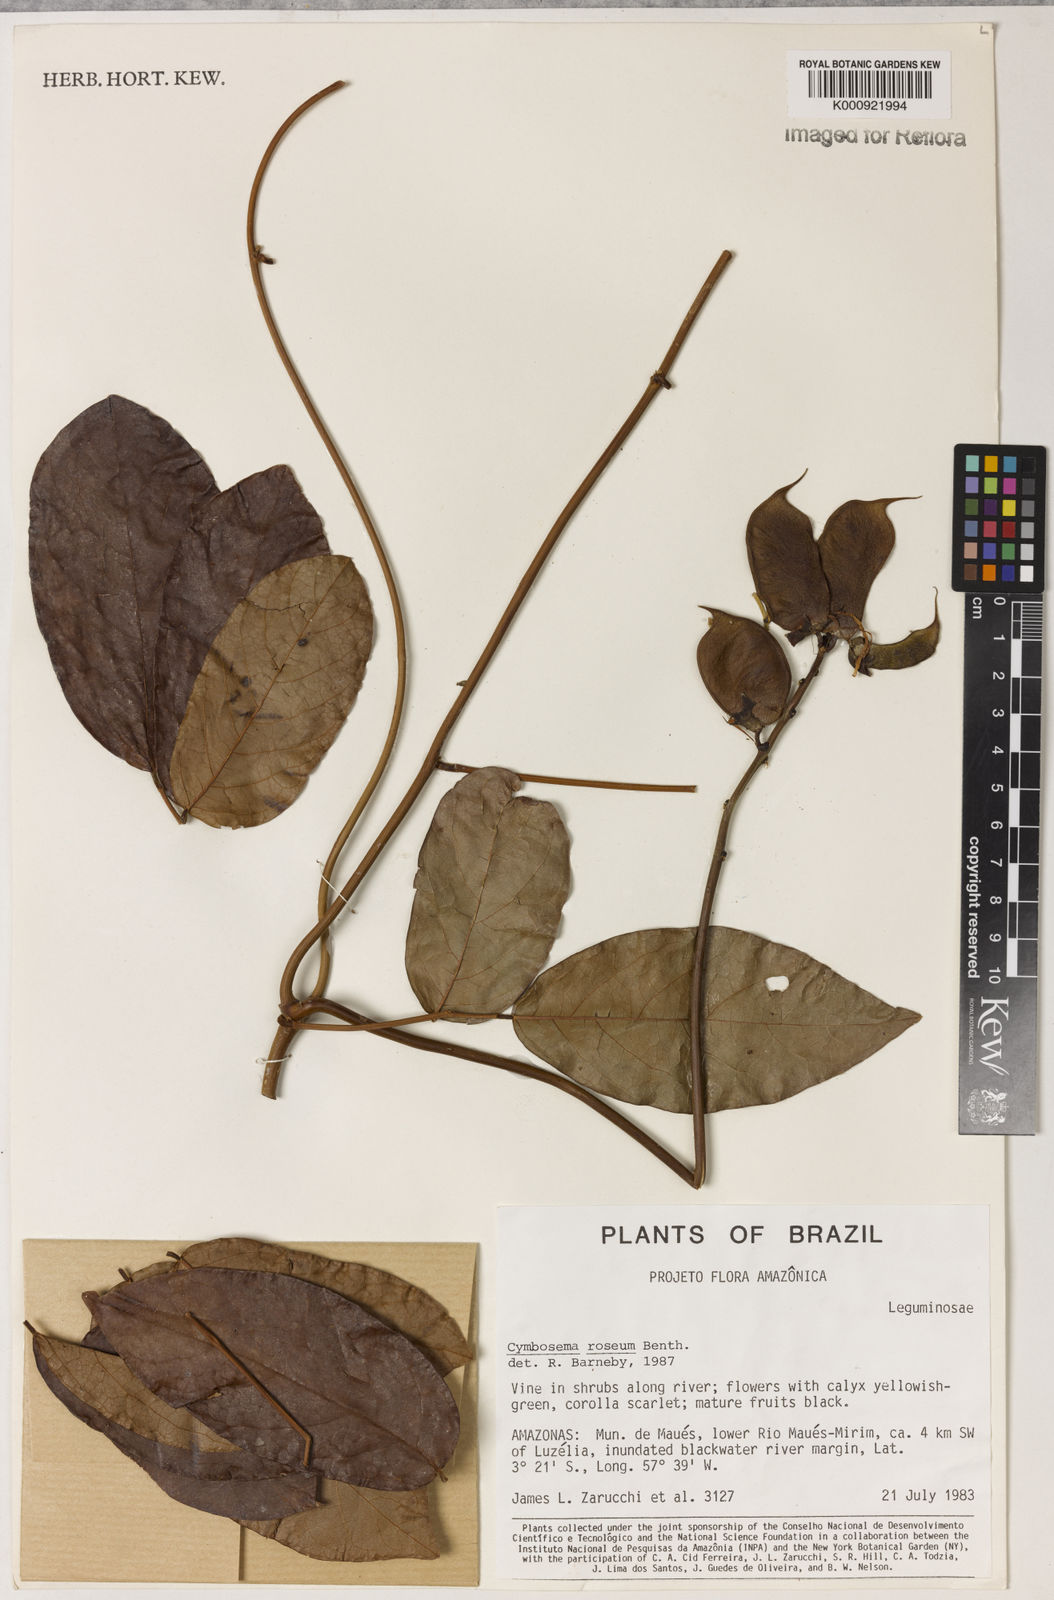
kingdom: Plantae
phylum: Tracheophyta
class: Magnoliopsida
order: Fabales
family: Fabaceae
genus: Cymbosema
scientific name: Cymbosema roseum
